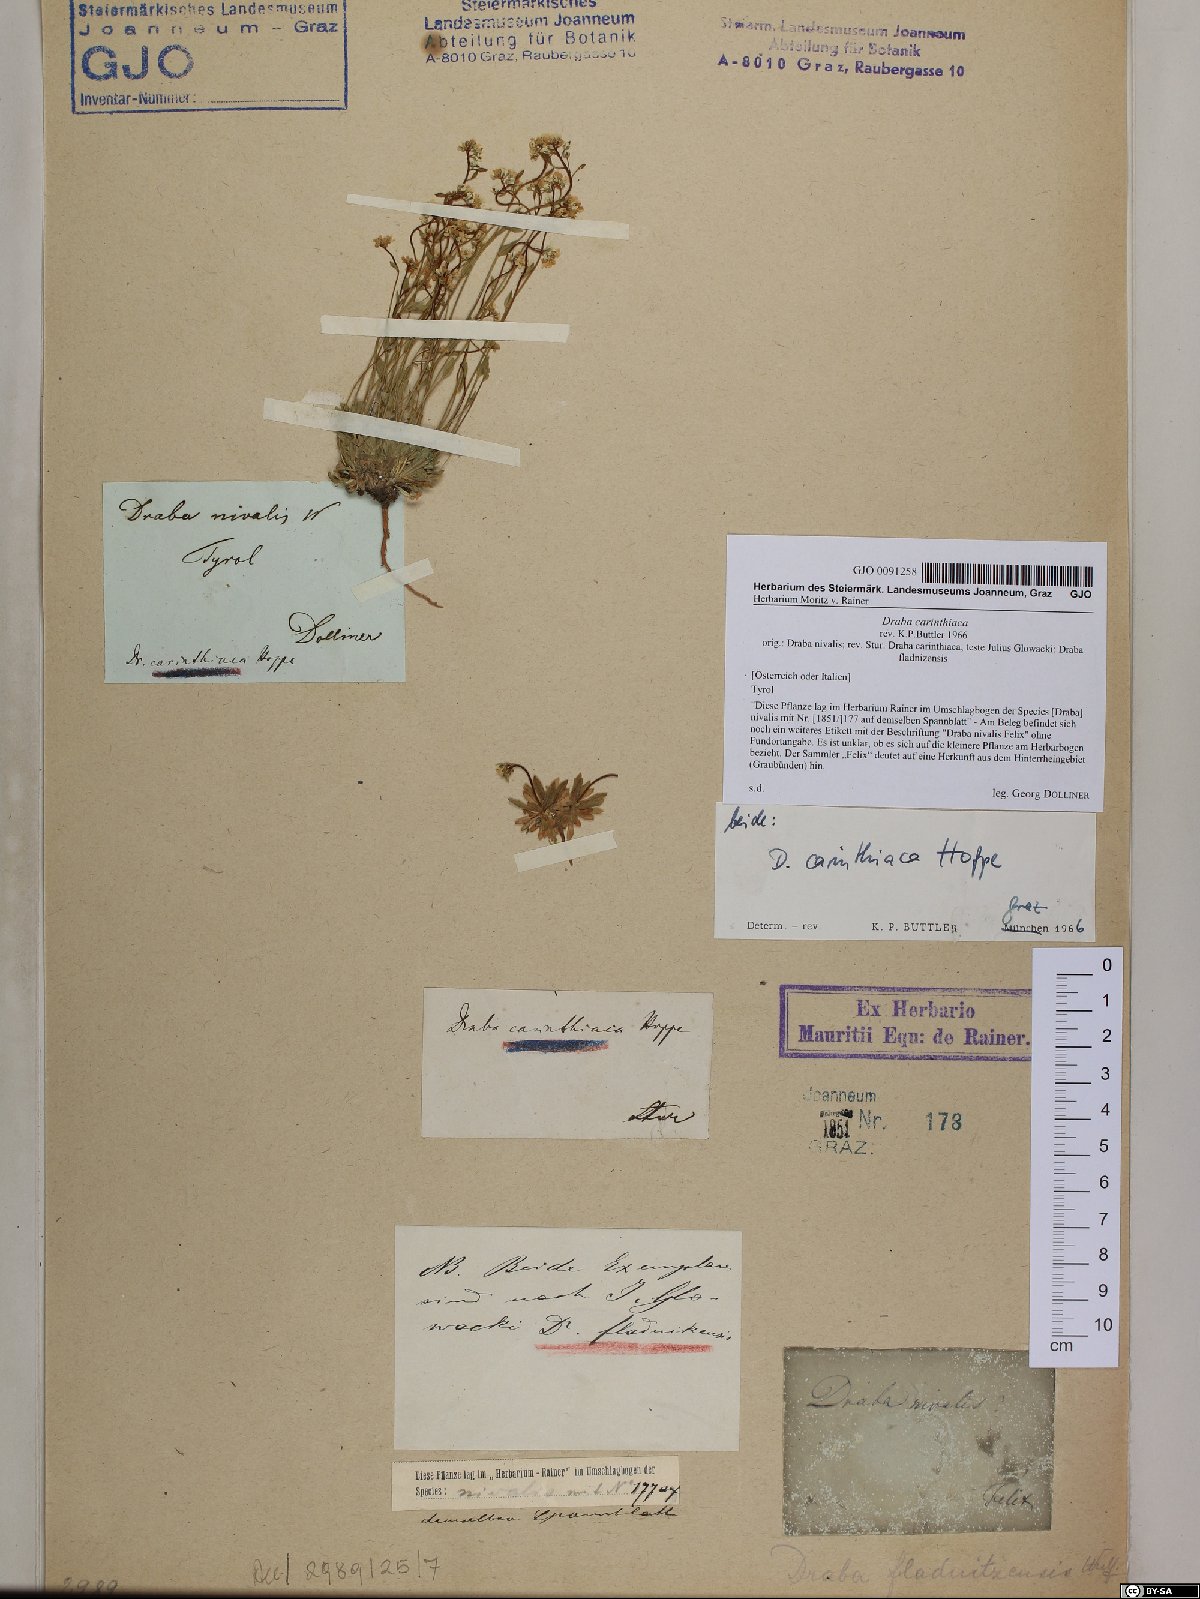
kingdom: Plantae
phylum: Tracheophyta
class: Magnoliopsida
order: Brassicales
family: Brassicaceae
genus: Draba
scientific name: Draba siliquosa
